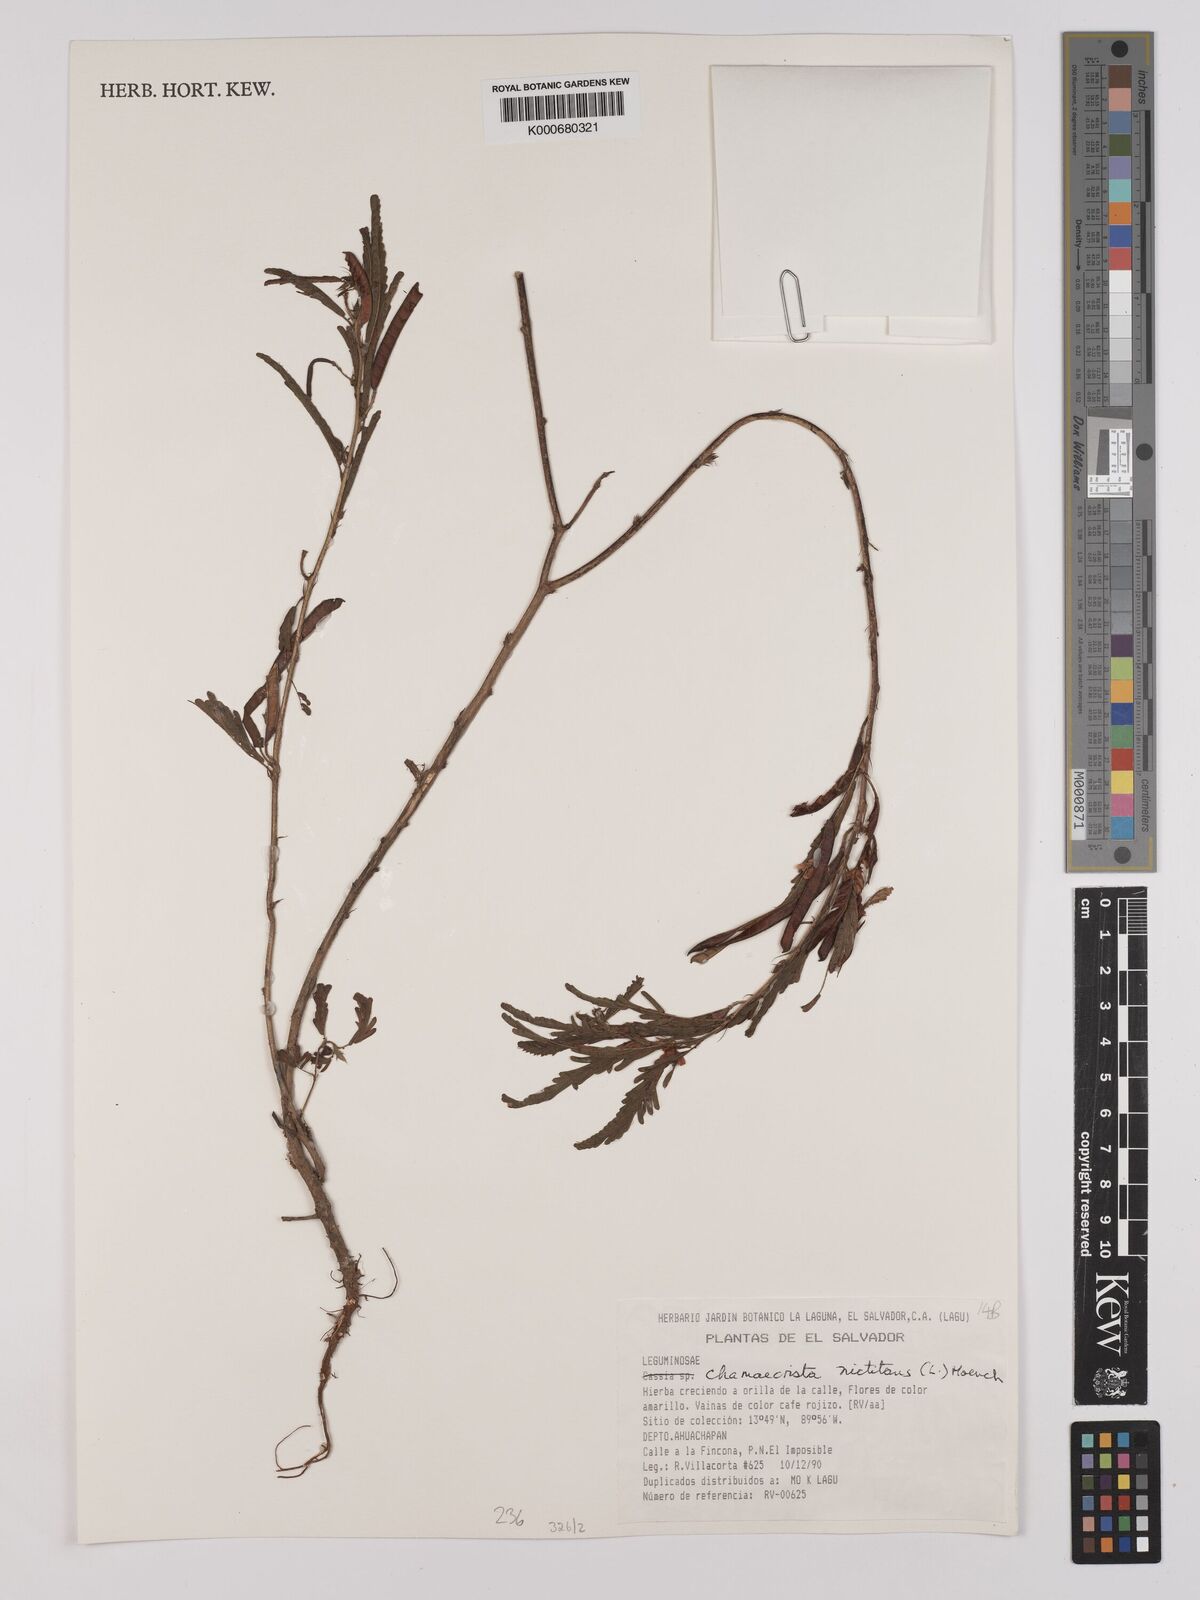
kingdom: Plantae
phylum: Tracheophyta
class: Magnoliopsida
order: Fabales
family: Fabaceae
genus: Chamaecrista
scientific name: Chamaecrista nictitans
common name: Sensitive cassia
